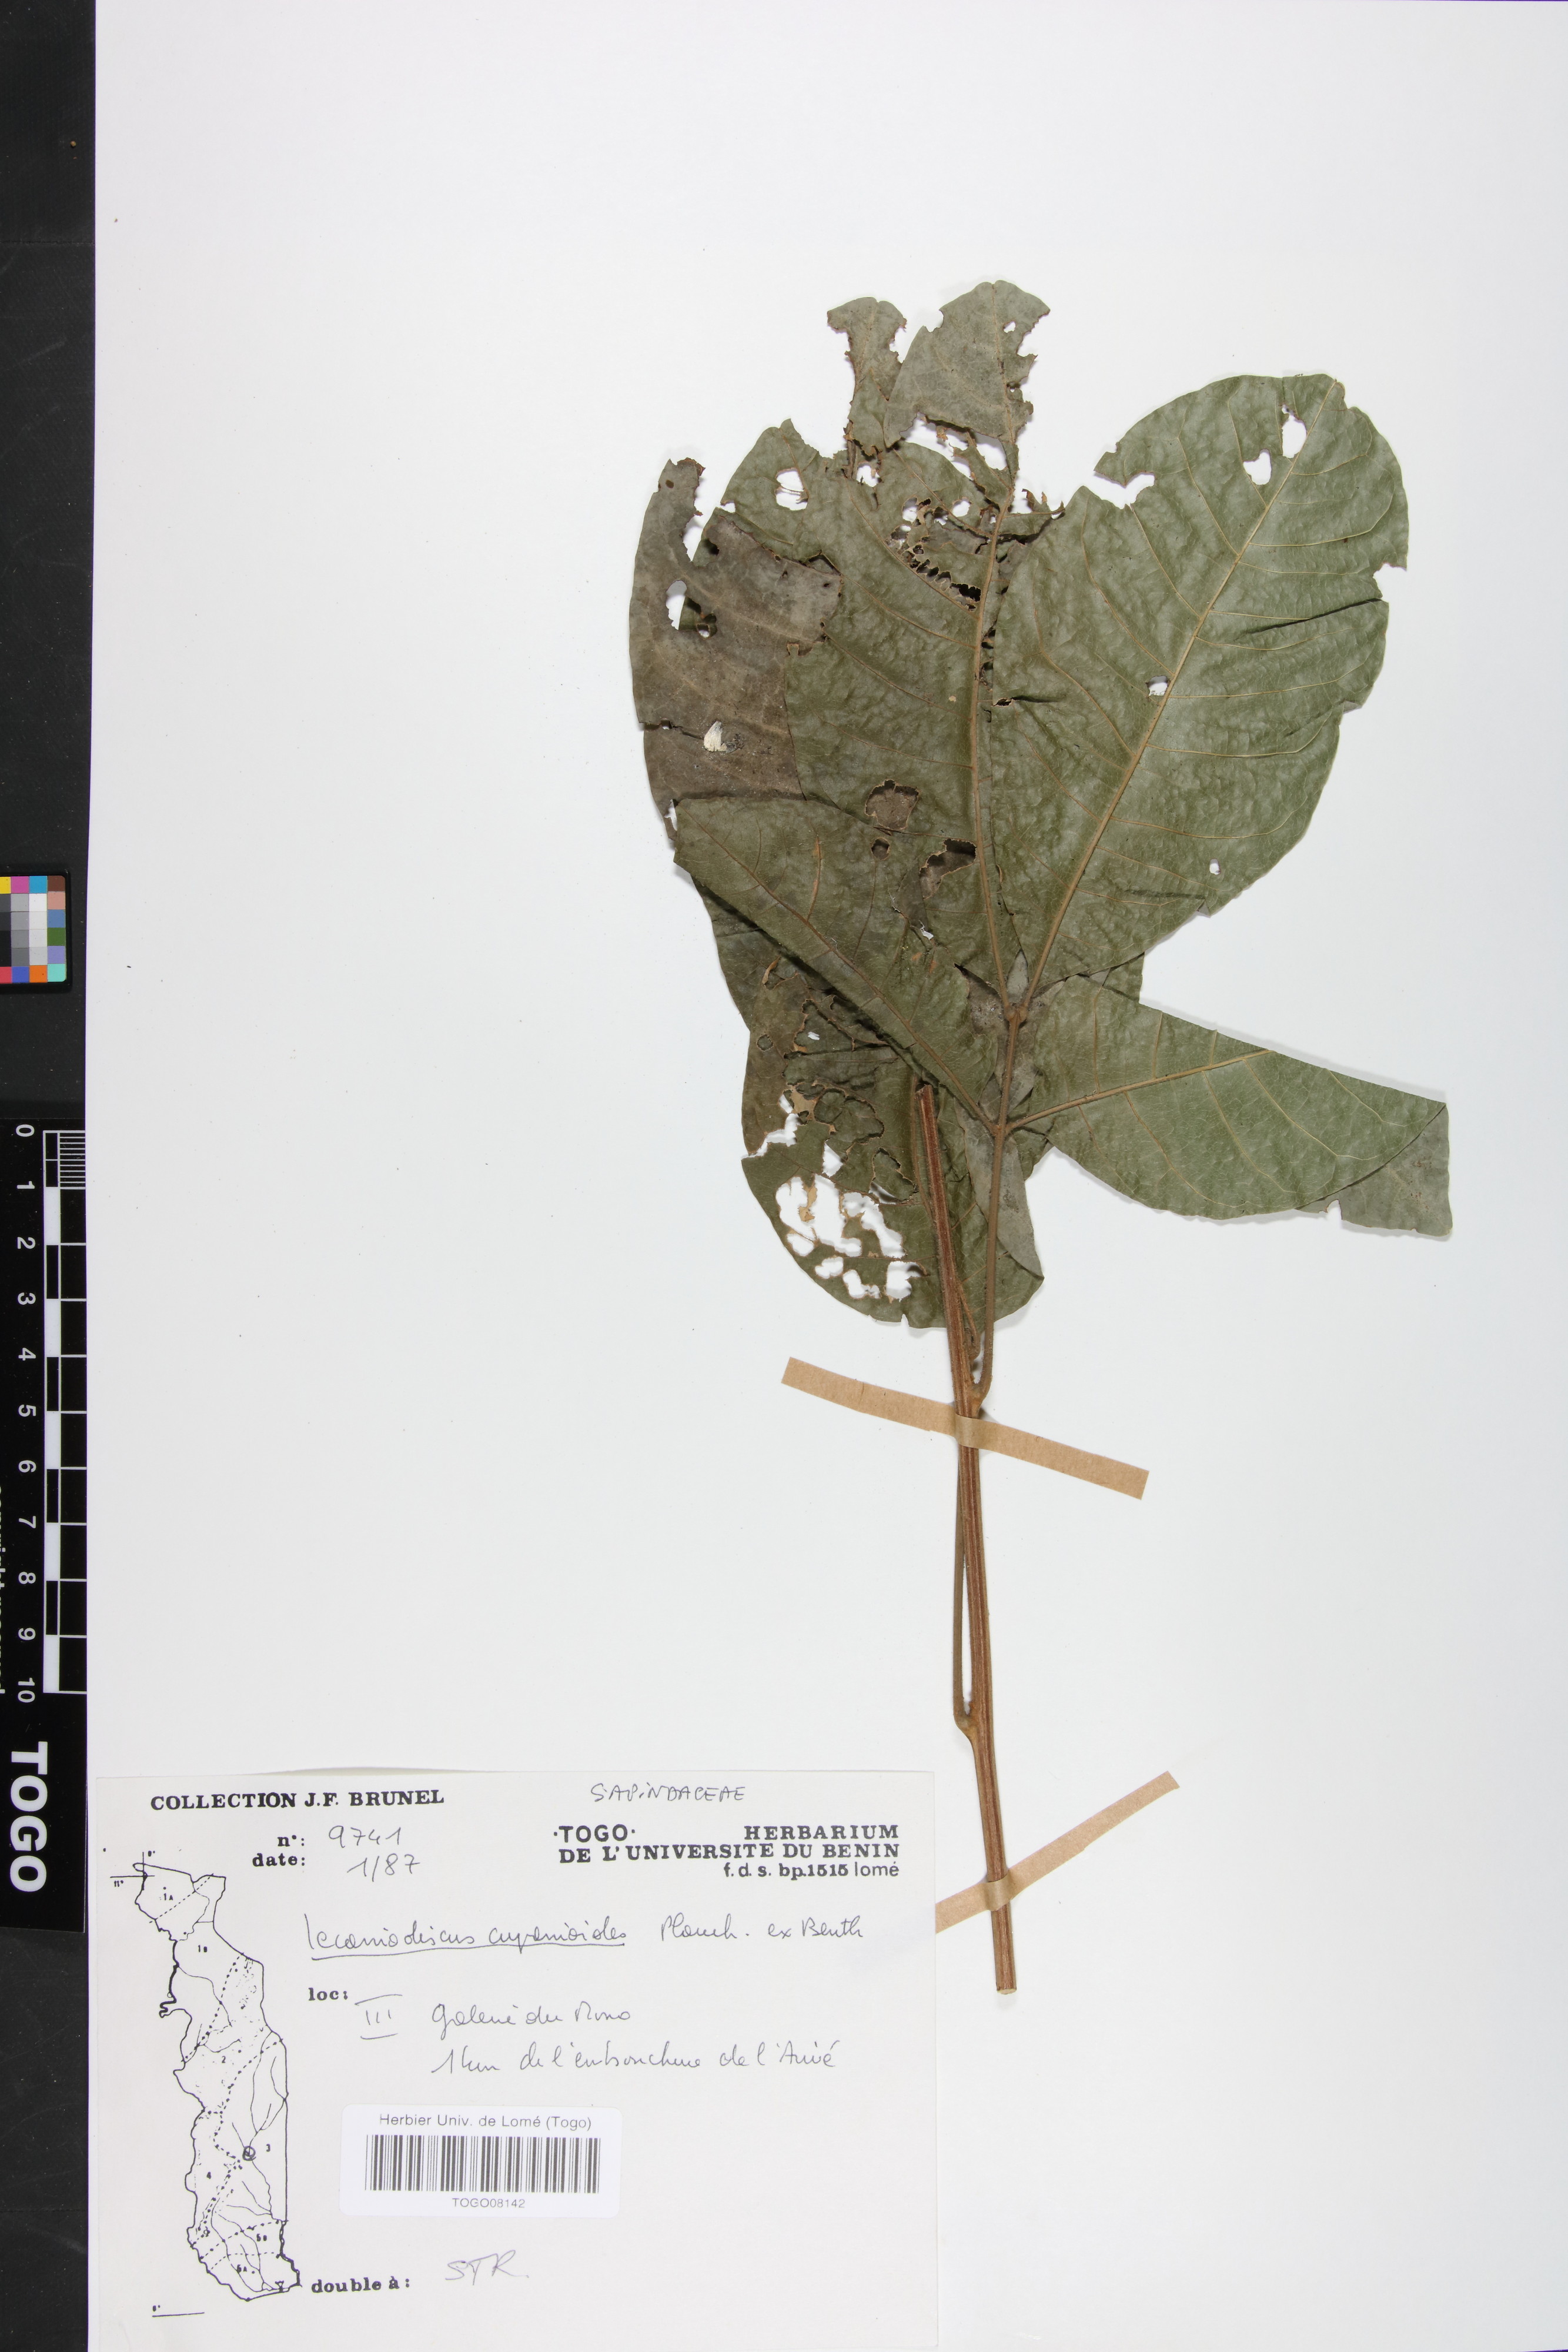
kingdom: Plantae
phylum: Tracheophyta
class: Magnoliopsida
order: Sapindales
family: Sapindaceae
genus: Lecaniodiscus
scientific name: Lecaniodiscus cupanioides
